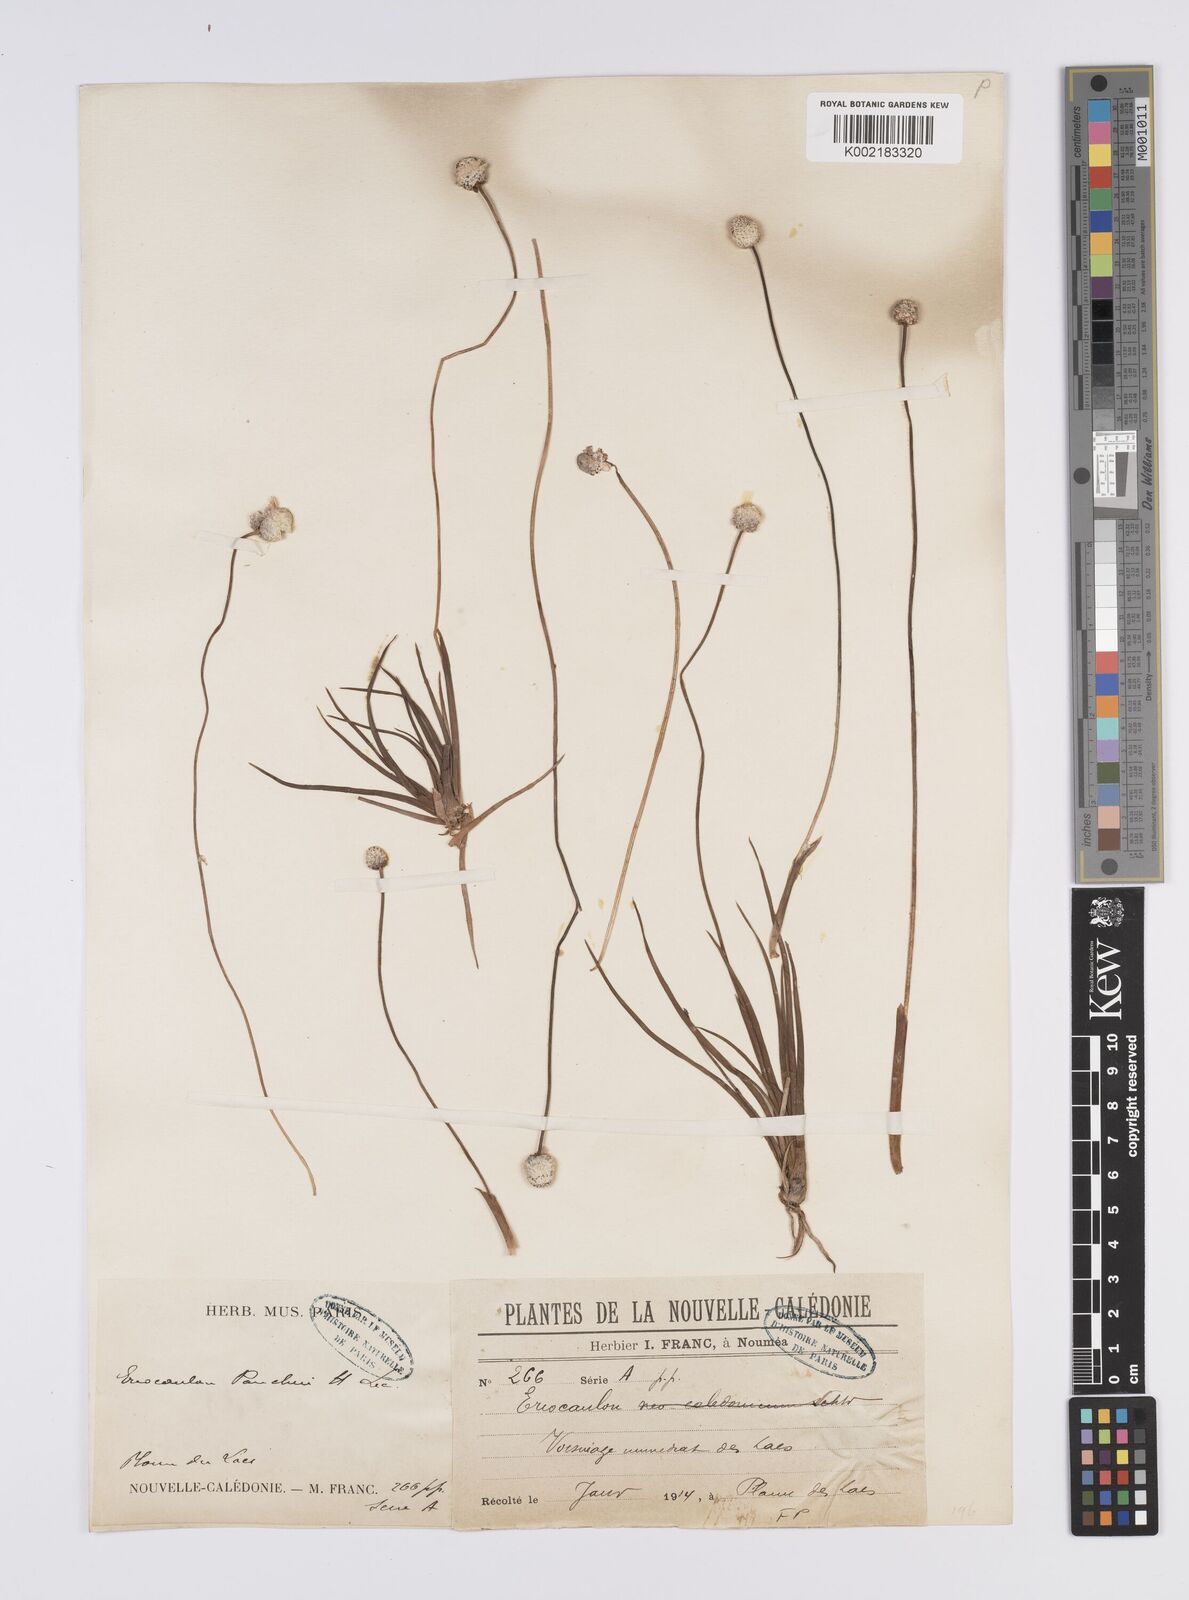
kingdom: Plantae
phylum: Tracheophyta
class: Liliopsida
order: Poales
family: Eriocaulaceae
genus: Eriocaulon
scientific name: Eriocaulon pancheri
